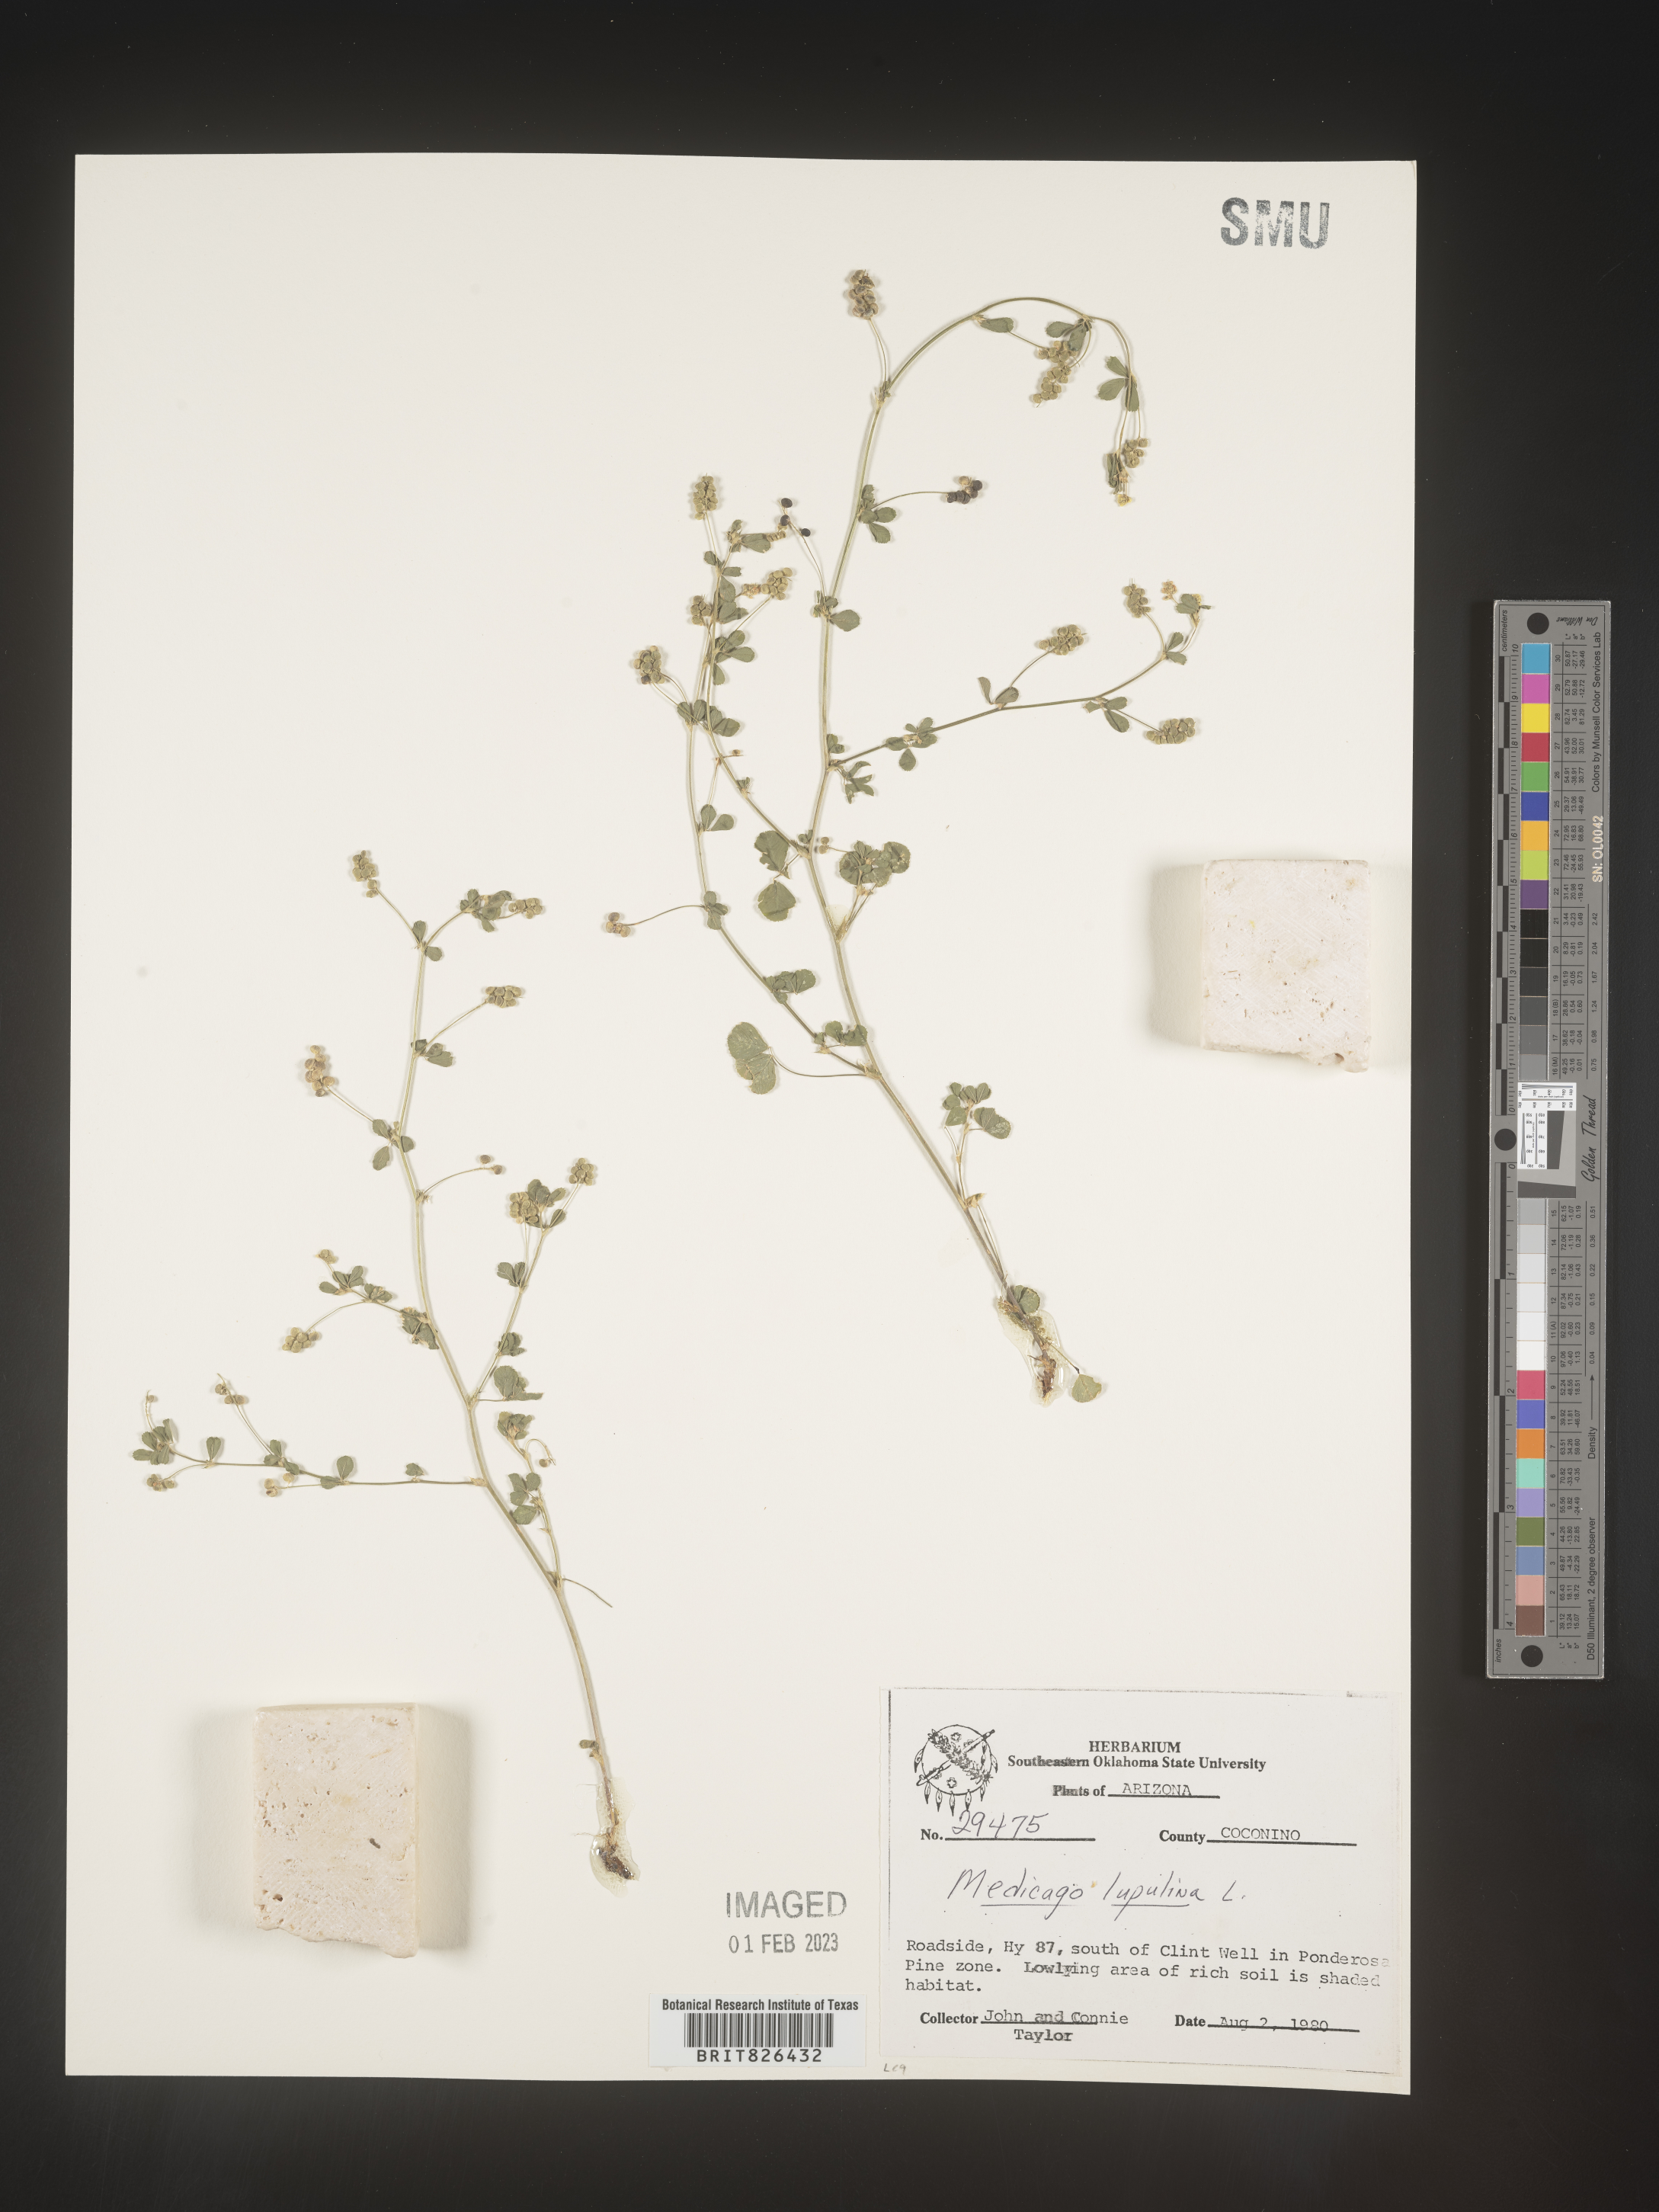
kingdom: Plantae
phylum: Tracheophyta
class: Magnoliopsida
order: Fabales
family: Fabaceae
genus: Medicago
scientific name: Medicago lupulina
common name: Black medick
